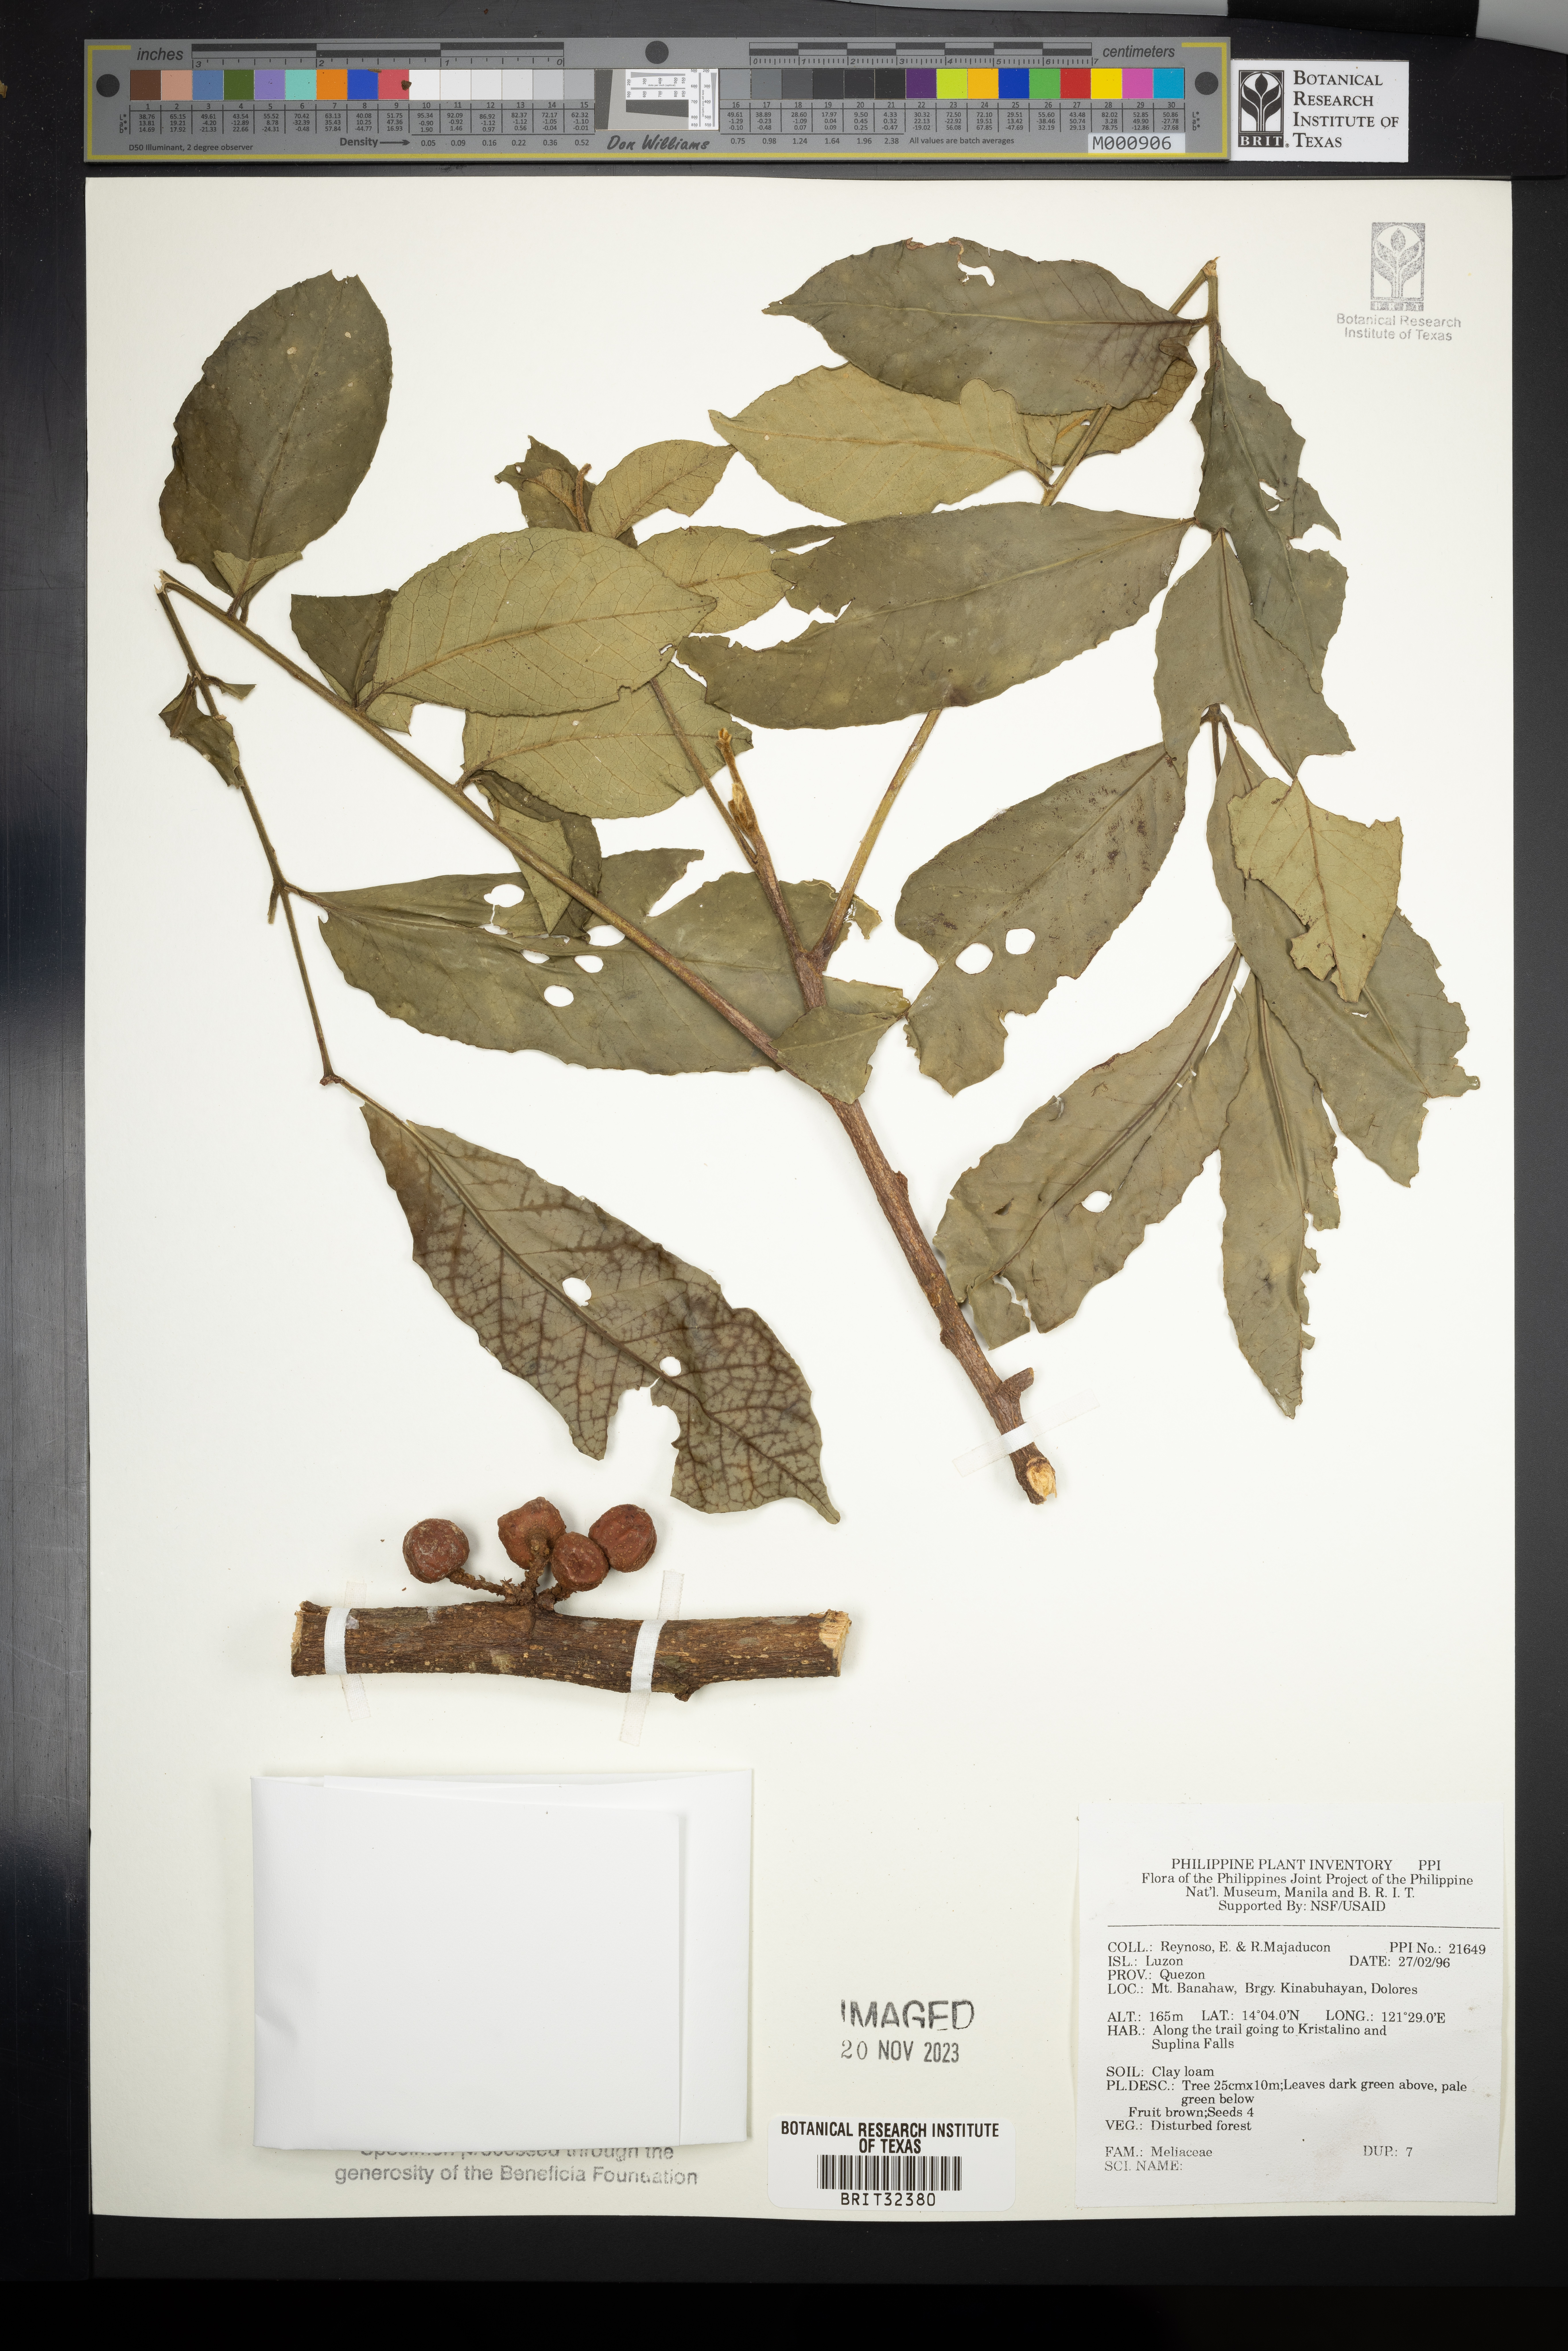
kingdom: Plantae
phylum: Tracheophyta
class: Magnoliopsida
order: Sapindales
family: Meliaceae
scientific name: Meliaceae
